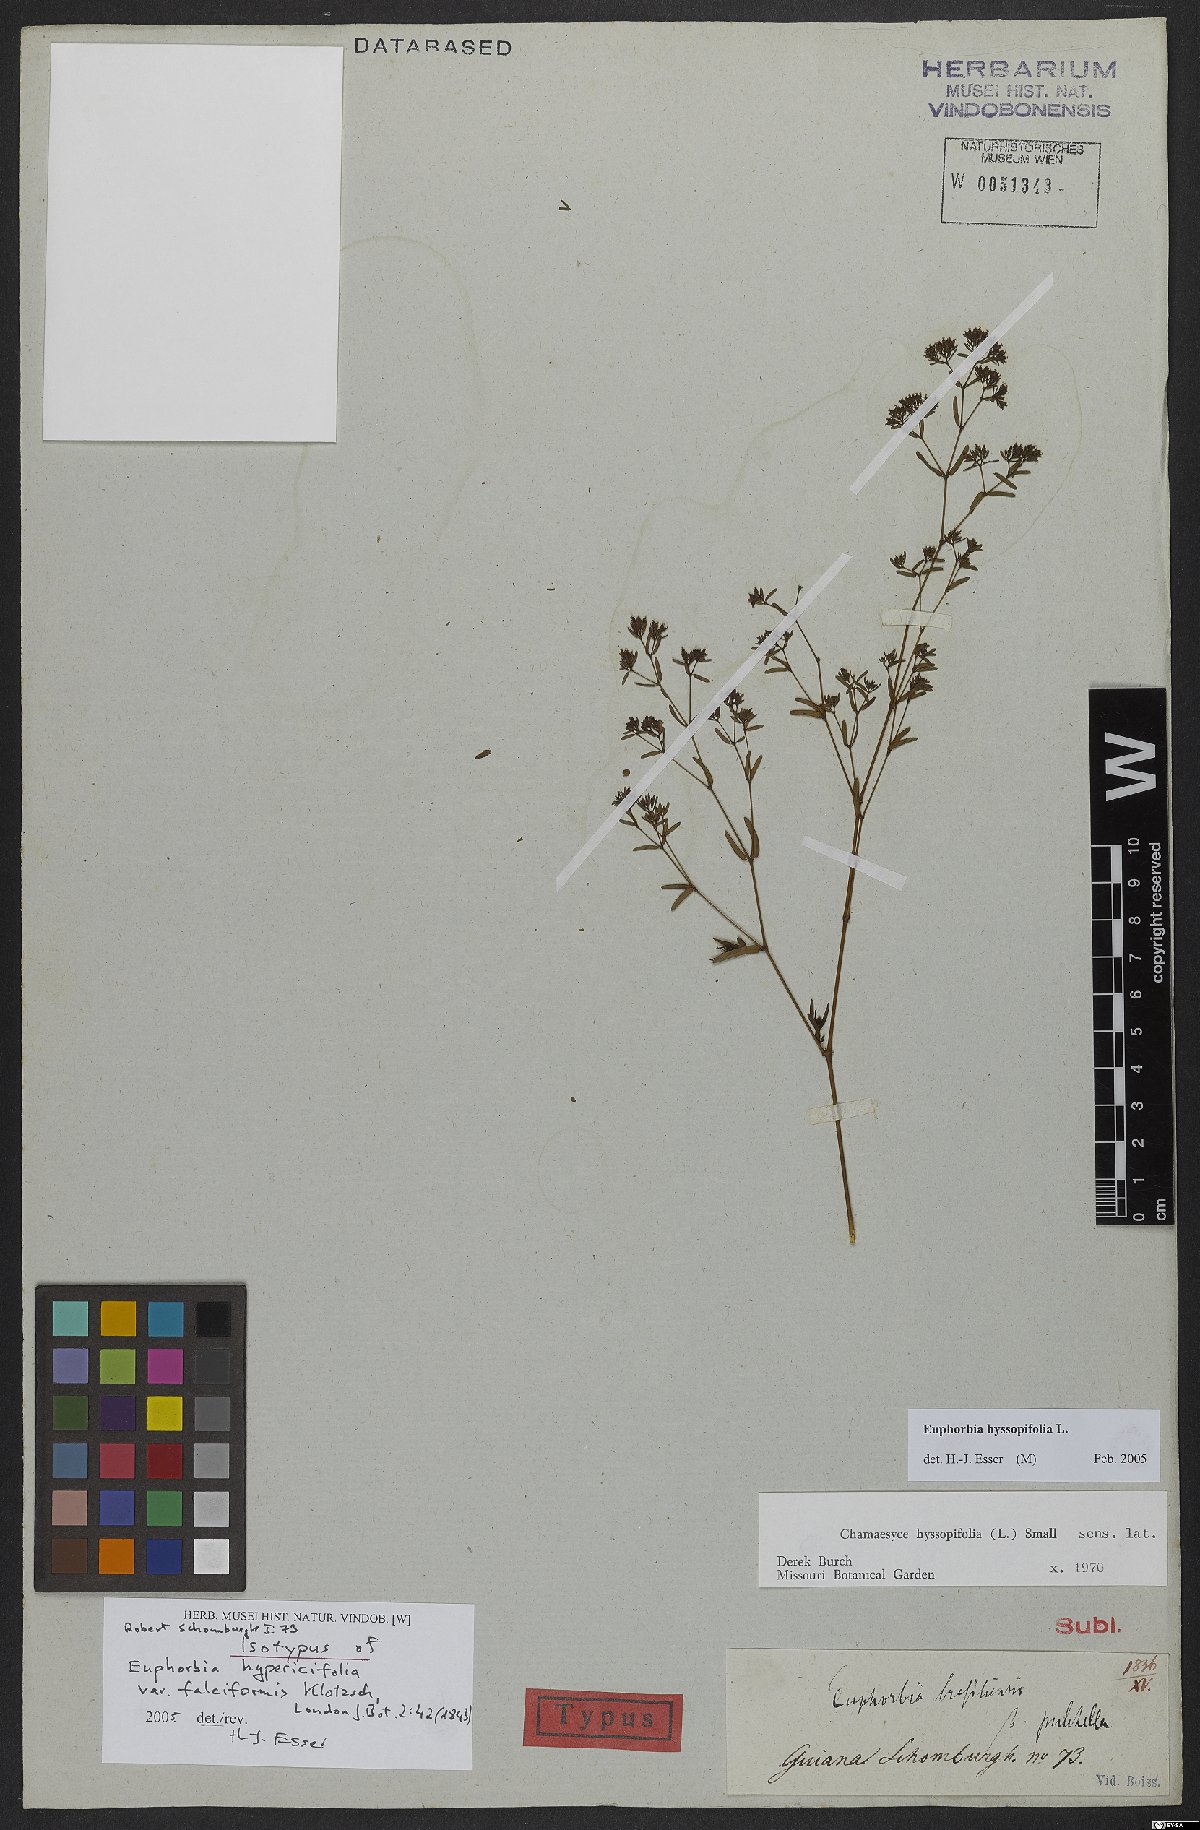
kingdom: Plantae
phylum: Tracheophyta
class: Magnoliopsida
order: Malpighiales
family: Euphorbiaceae
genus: Euphorbia
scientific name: Euphorbia hyssopifolia
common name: Hyssopleaf sandmat
